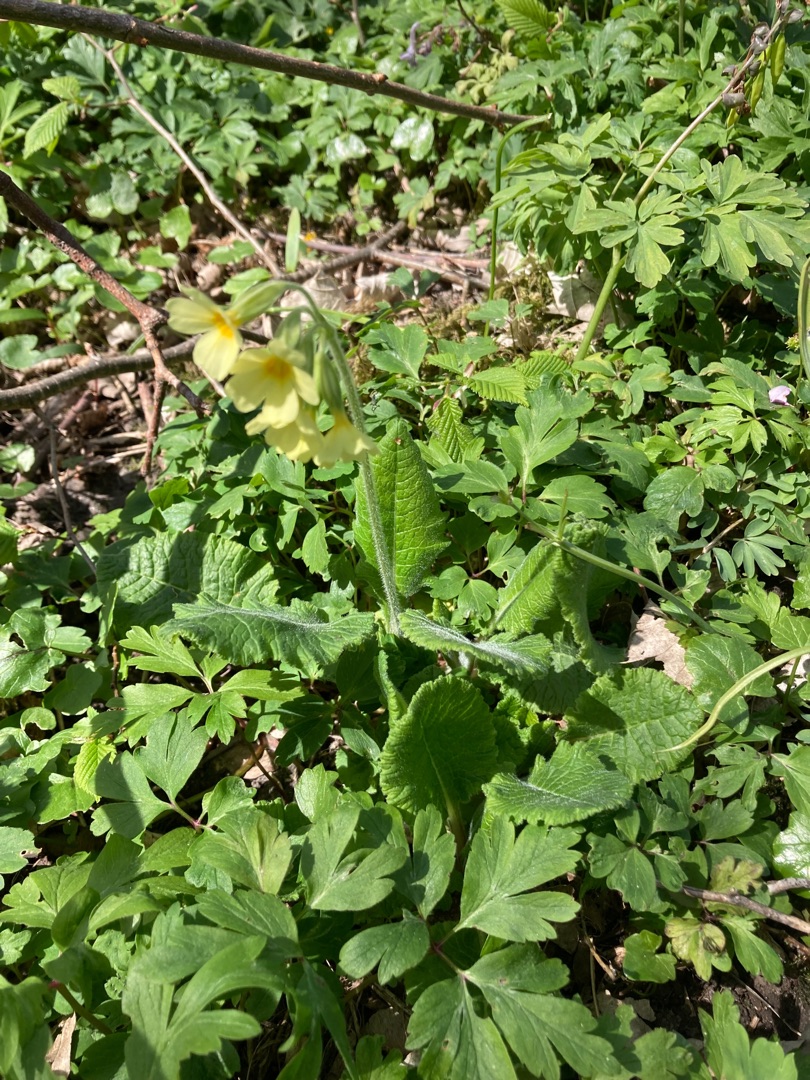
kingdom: Plantae
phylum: Tracheophyta
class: Magnoliopsida
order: Ericales
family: Primulaceae
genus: Primula
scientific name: Primula elatior
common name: Fladkravet kodriver
